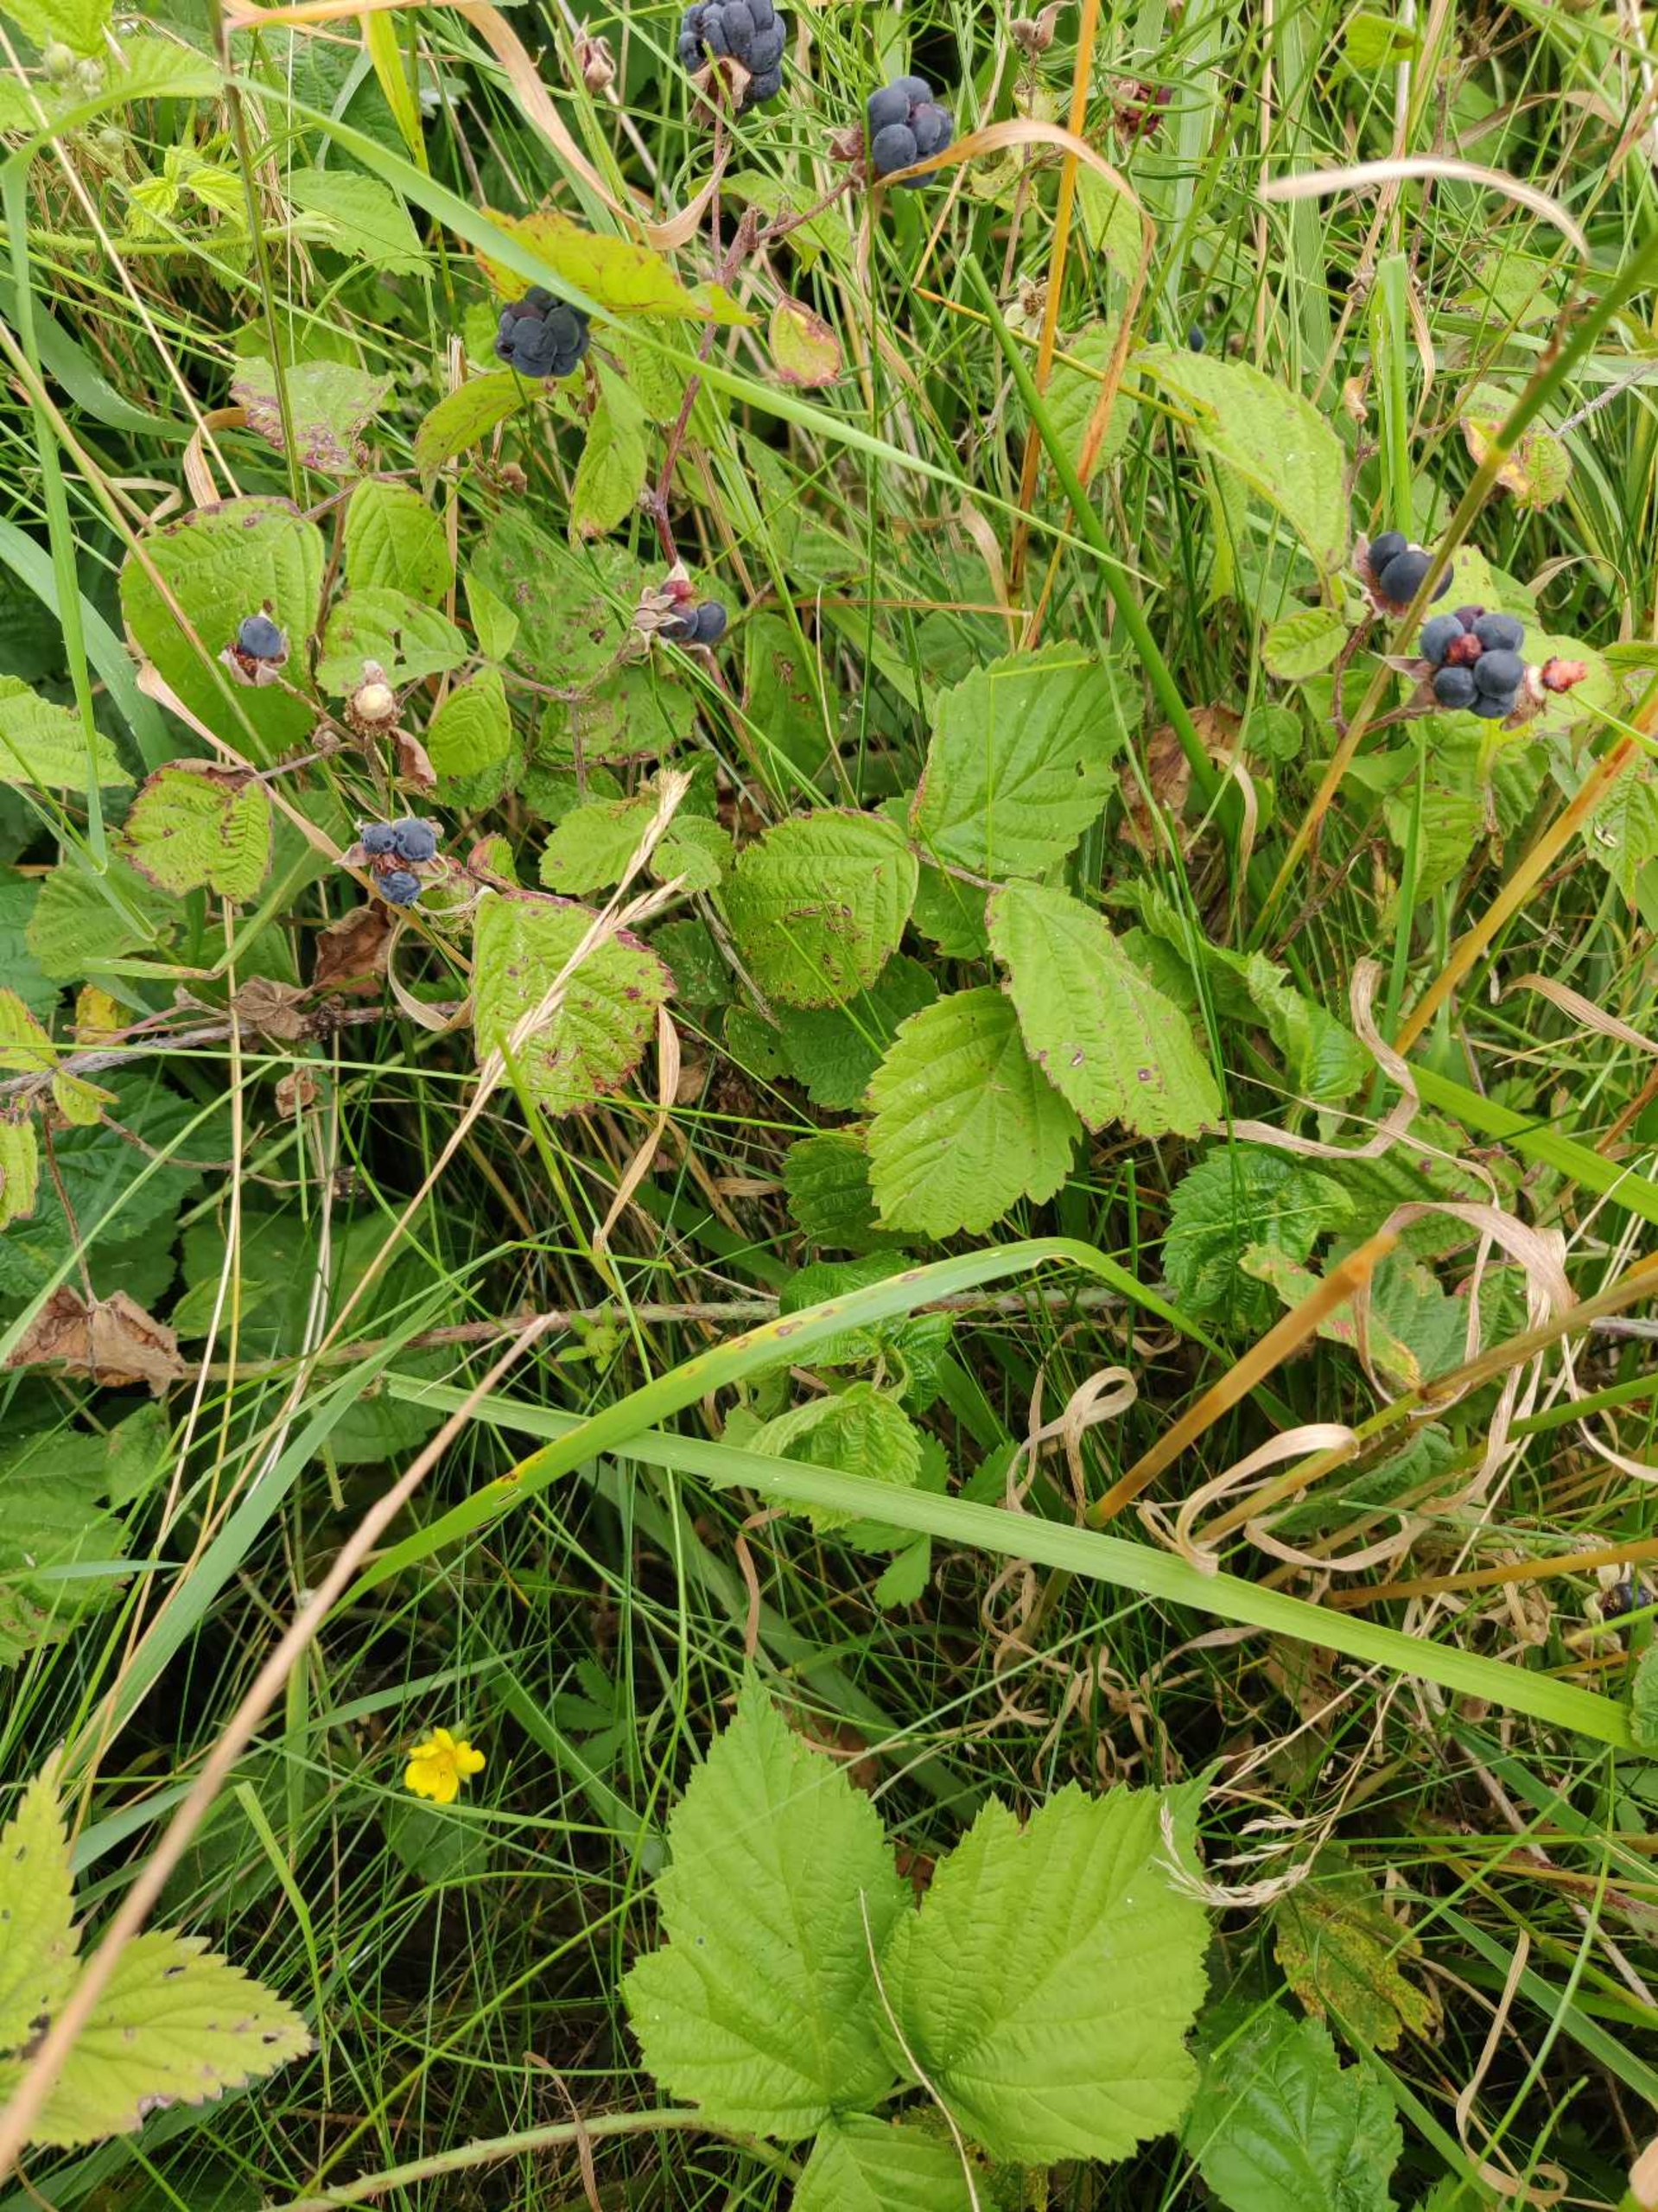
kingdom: Plantae
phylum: Tracheophyta
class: Magnoliopsida
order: Rosales
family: Rosaceae
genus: Rubus
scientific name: Rubus caesius
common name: Korbær
